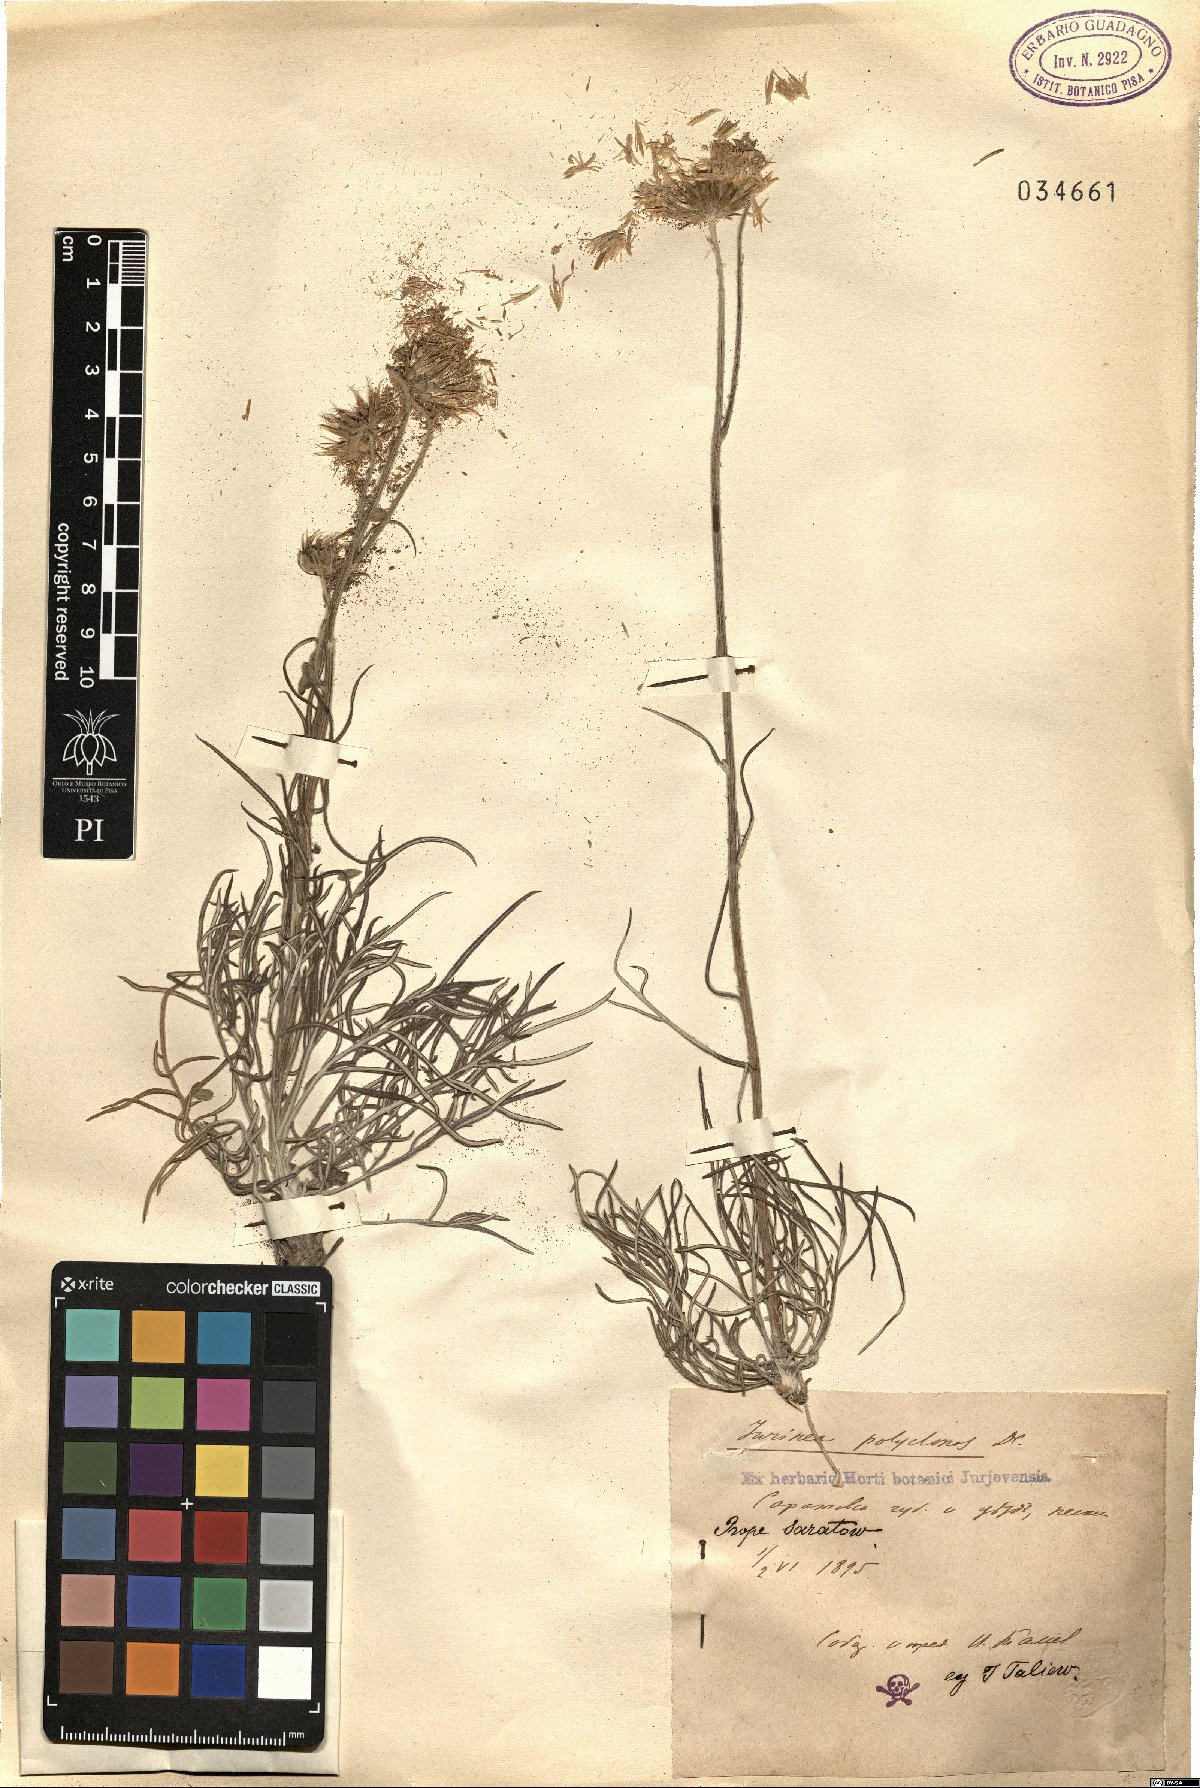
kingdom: Plantae
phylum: Tracheophyta
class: Magnoliopsida
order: Asterales
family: Asteraceae
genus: Jurinea
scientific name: Jurinea polyclonos
